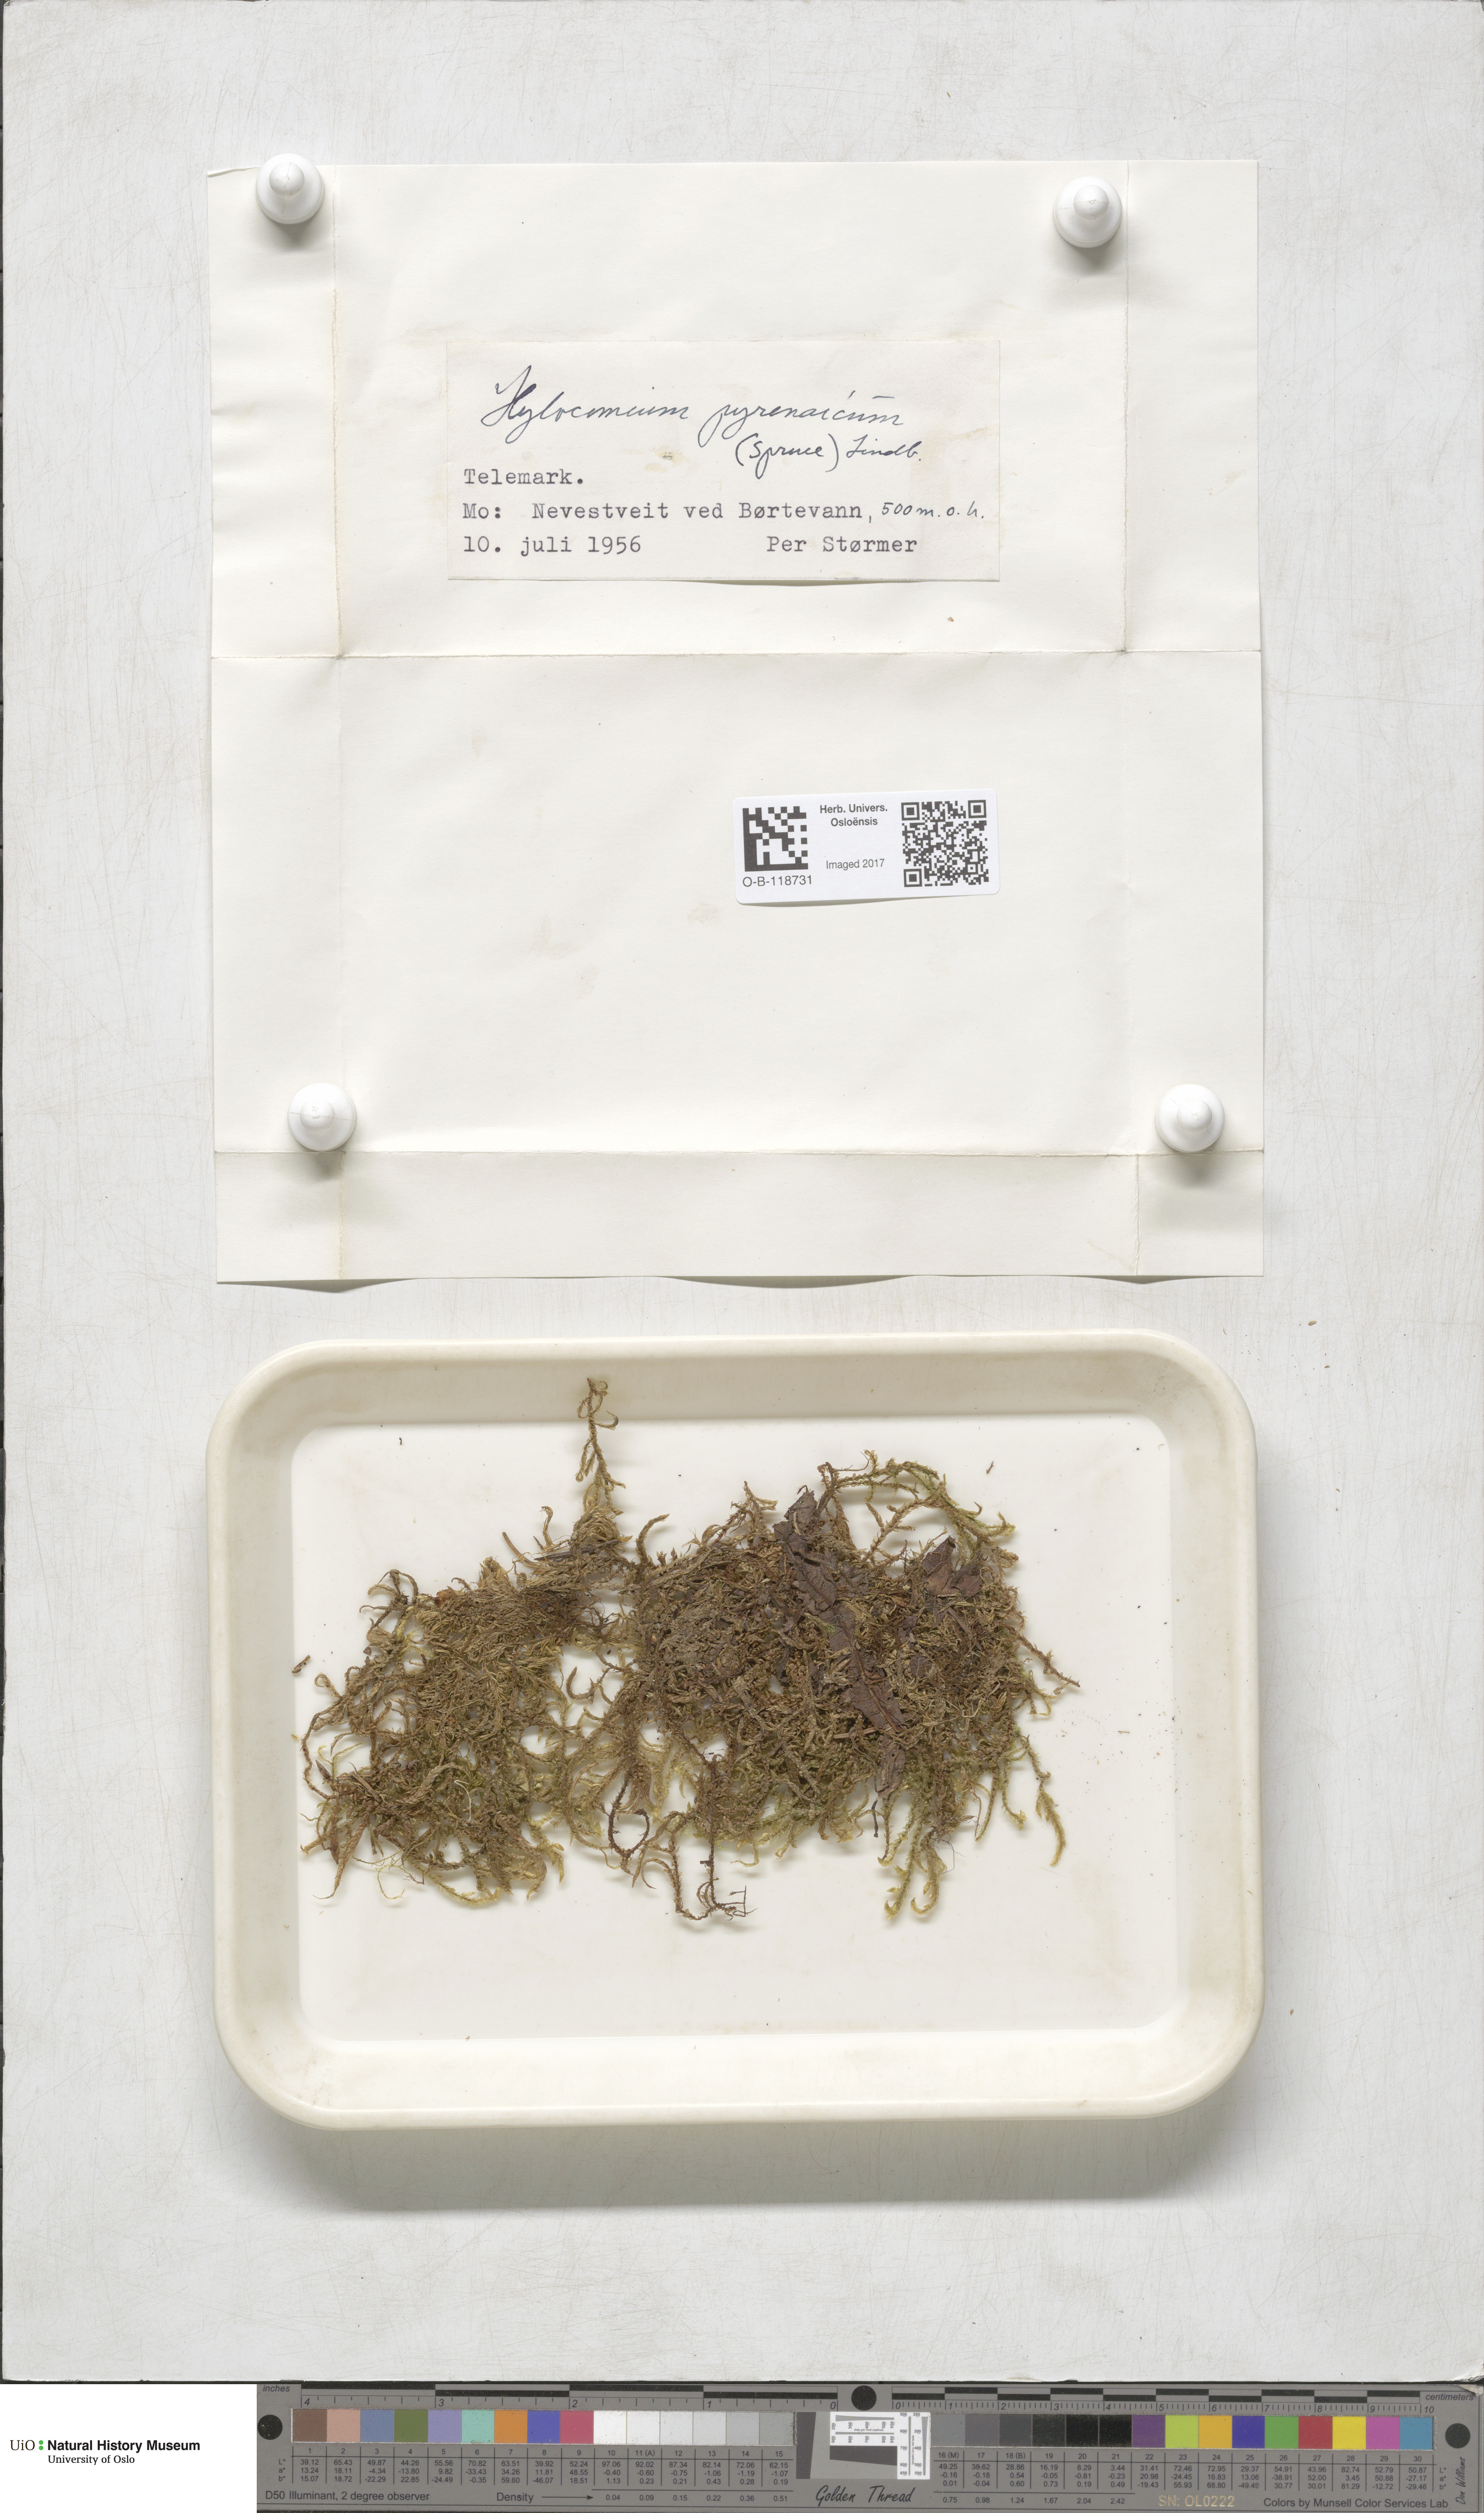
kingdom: Plantae
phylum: Bryophyta
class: Bryopsida
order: Hypnales
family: Hylocomiaceae
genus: Hylocomiastrum
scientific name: Hylocomiastrum pyrenaicum
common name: Oake s wood moss
